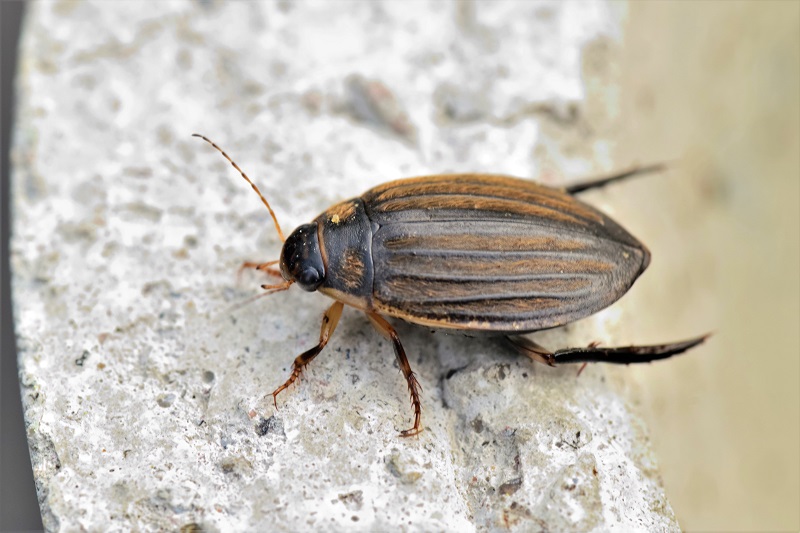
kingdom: Animalia
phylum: Arthropoda
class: Insecta
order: Coleoptera
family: Dytiscidae
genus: Acilius
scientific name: Acilius
